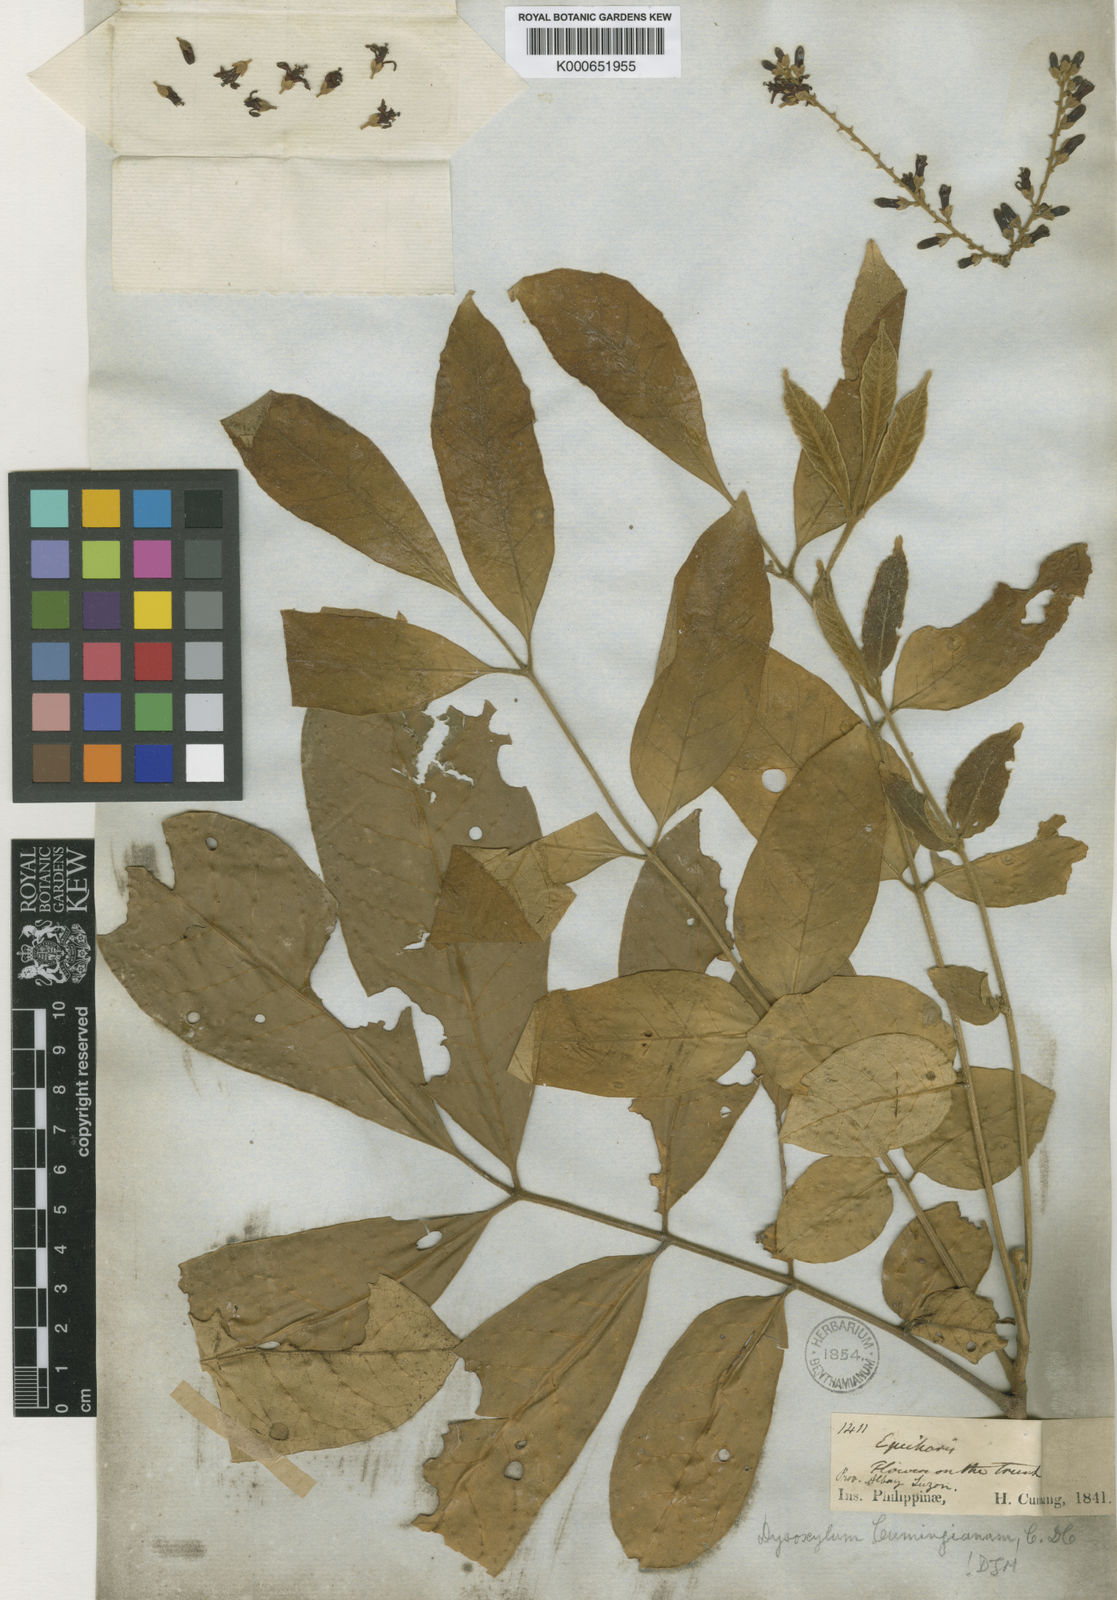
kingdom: Plantae
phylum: Tracheophyta
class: Magnoliopsida
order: Sapindales
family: Meliaceae
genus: Epicharis
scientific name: Epicharis cumingiana
